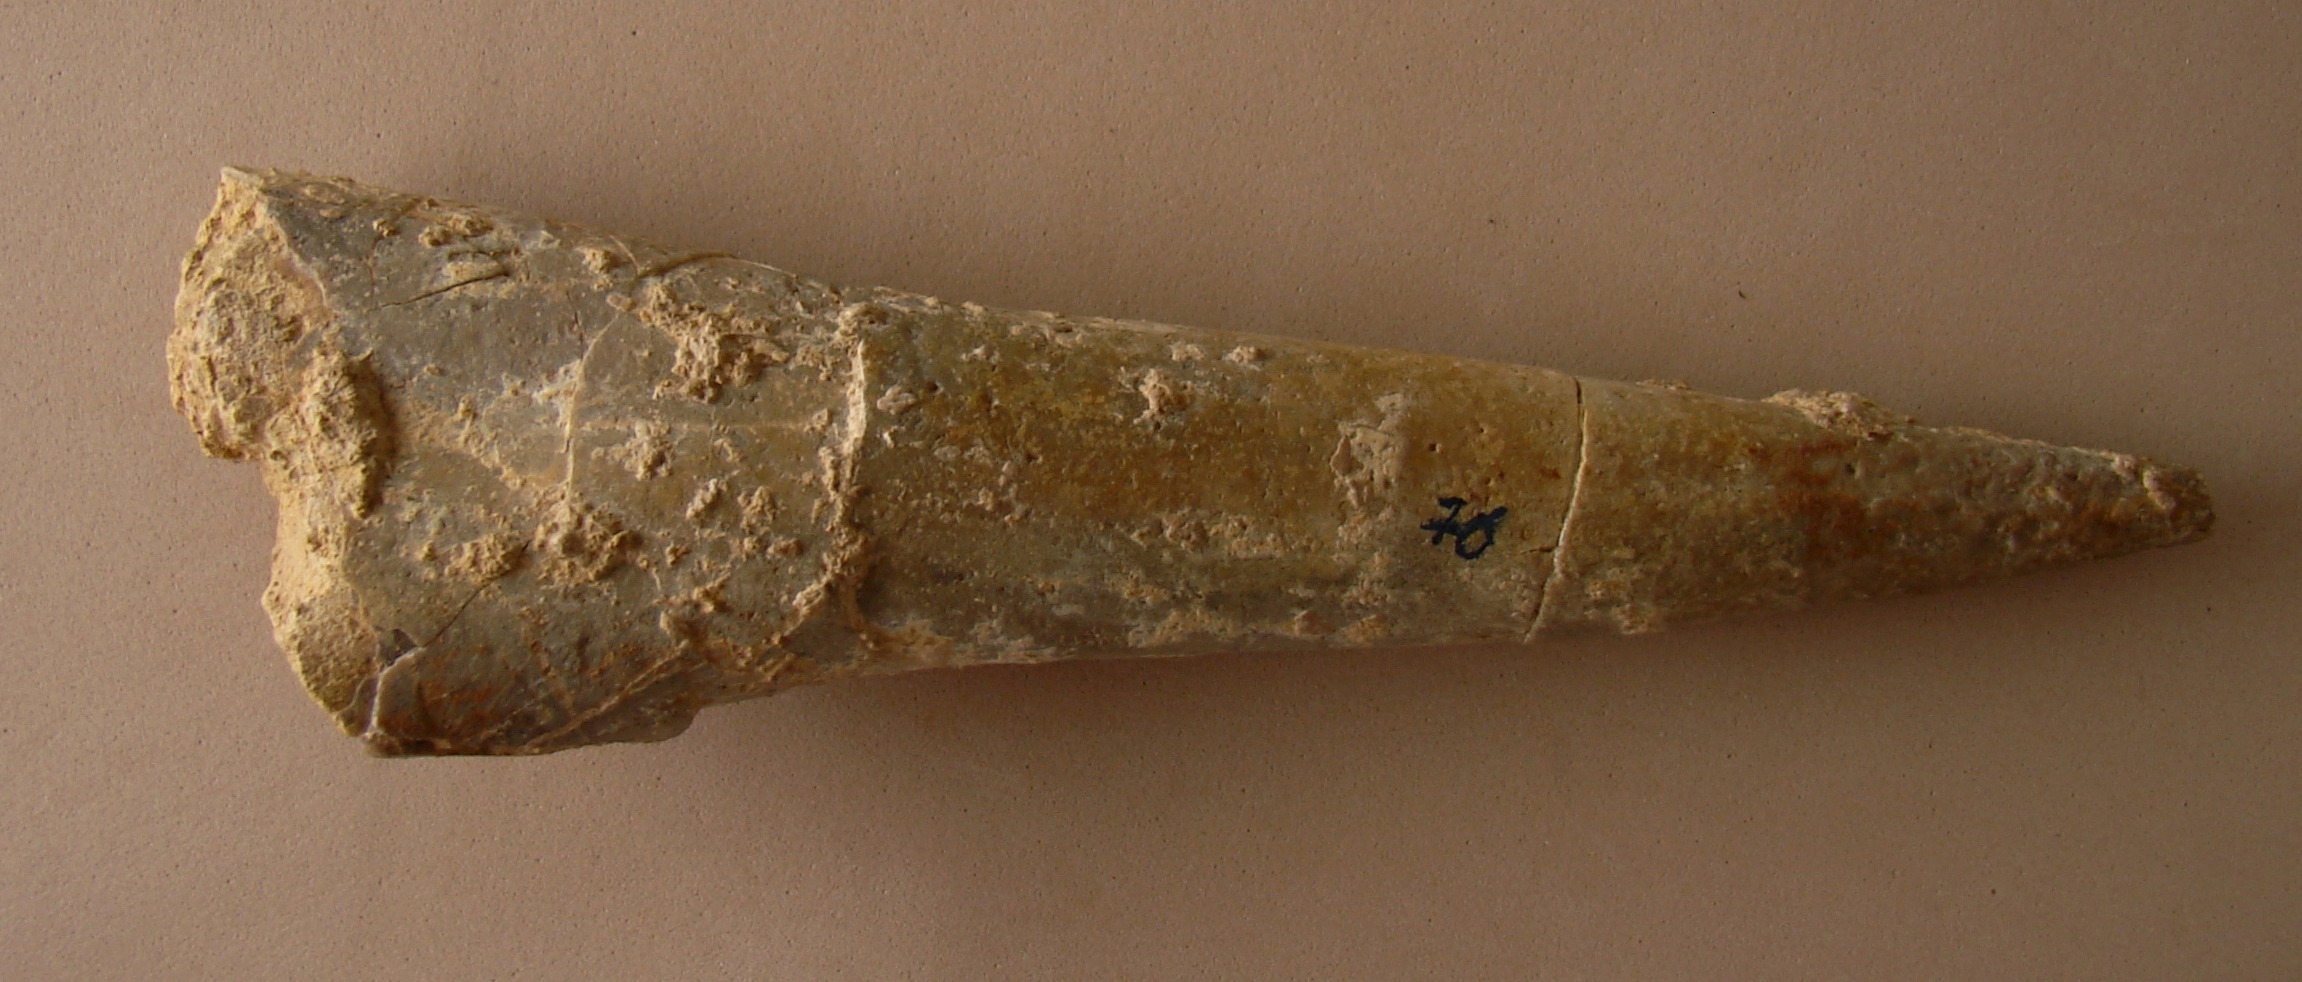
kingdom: Animalia
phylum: Mollusca
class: Cephalopoda
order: Belemnitida
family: Megateuthididae
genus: Megateuthis
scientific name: Megateuthis
